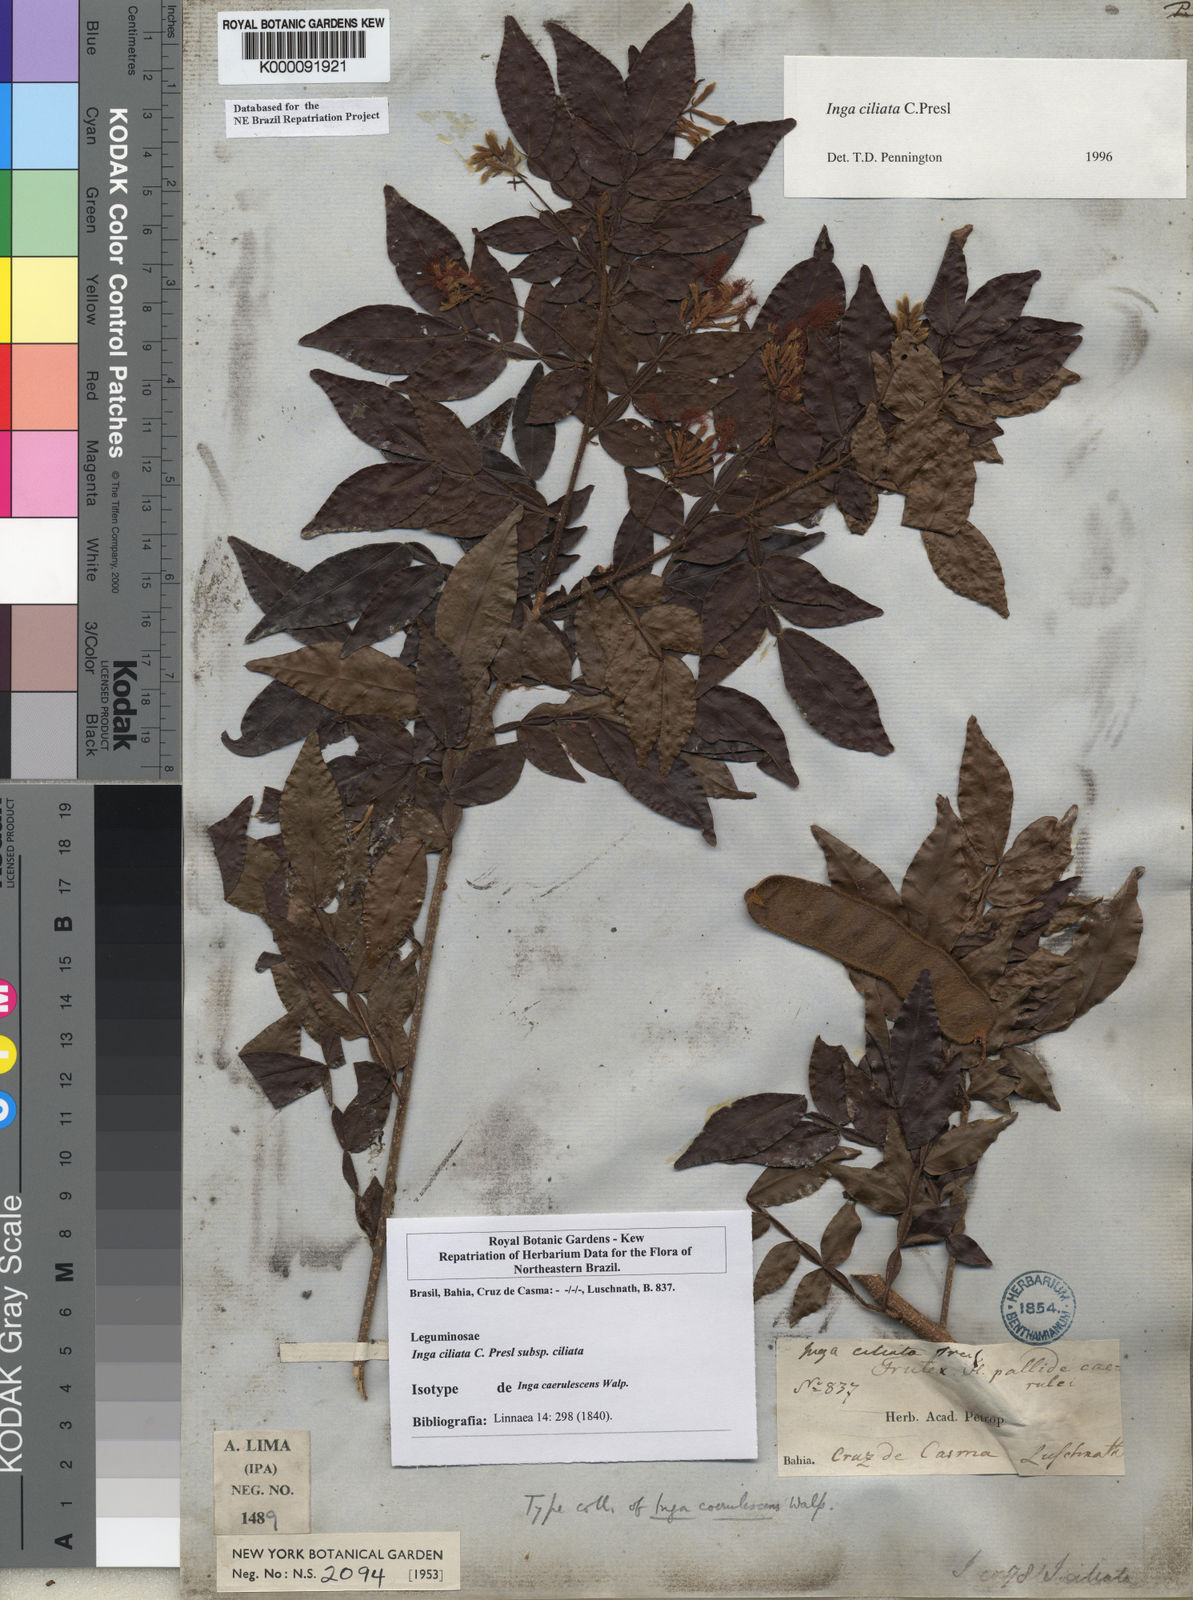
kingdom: Plantae
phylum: Tracheophyta
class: Magnoliopsida
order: Fabales
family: Fabaceae
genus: Inga
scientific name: Inga ciliata
